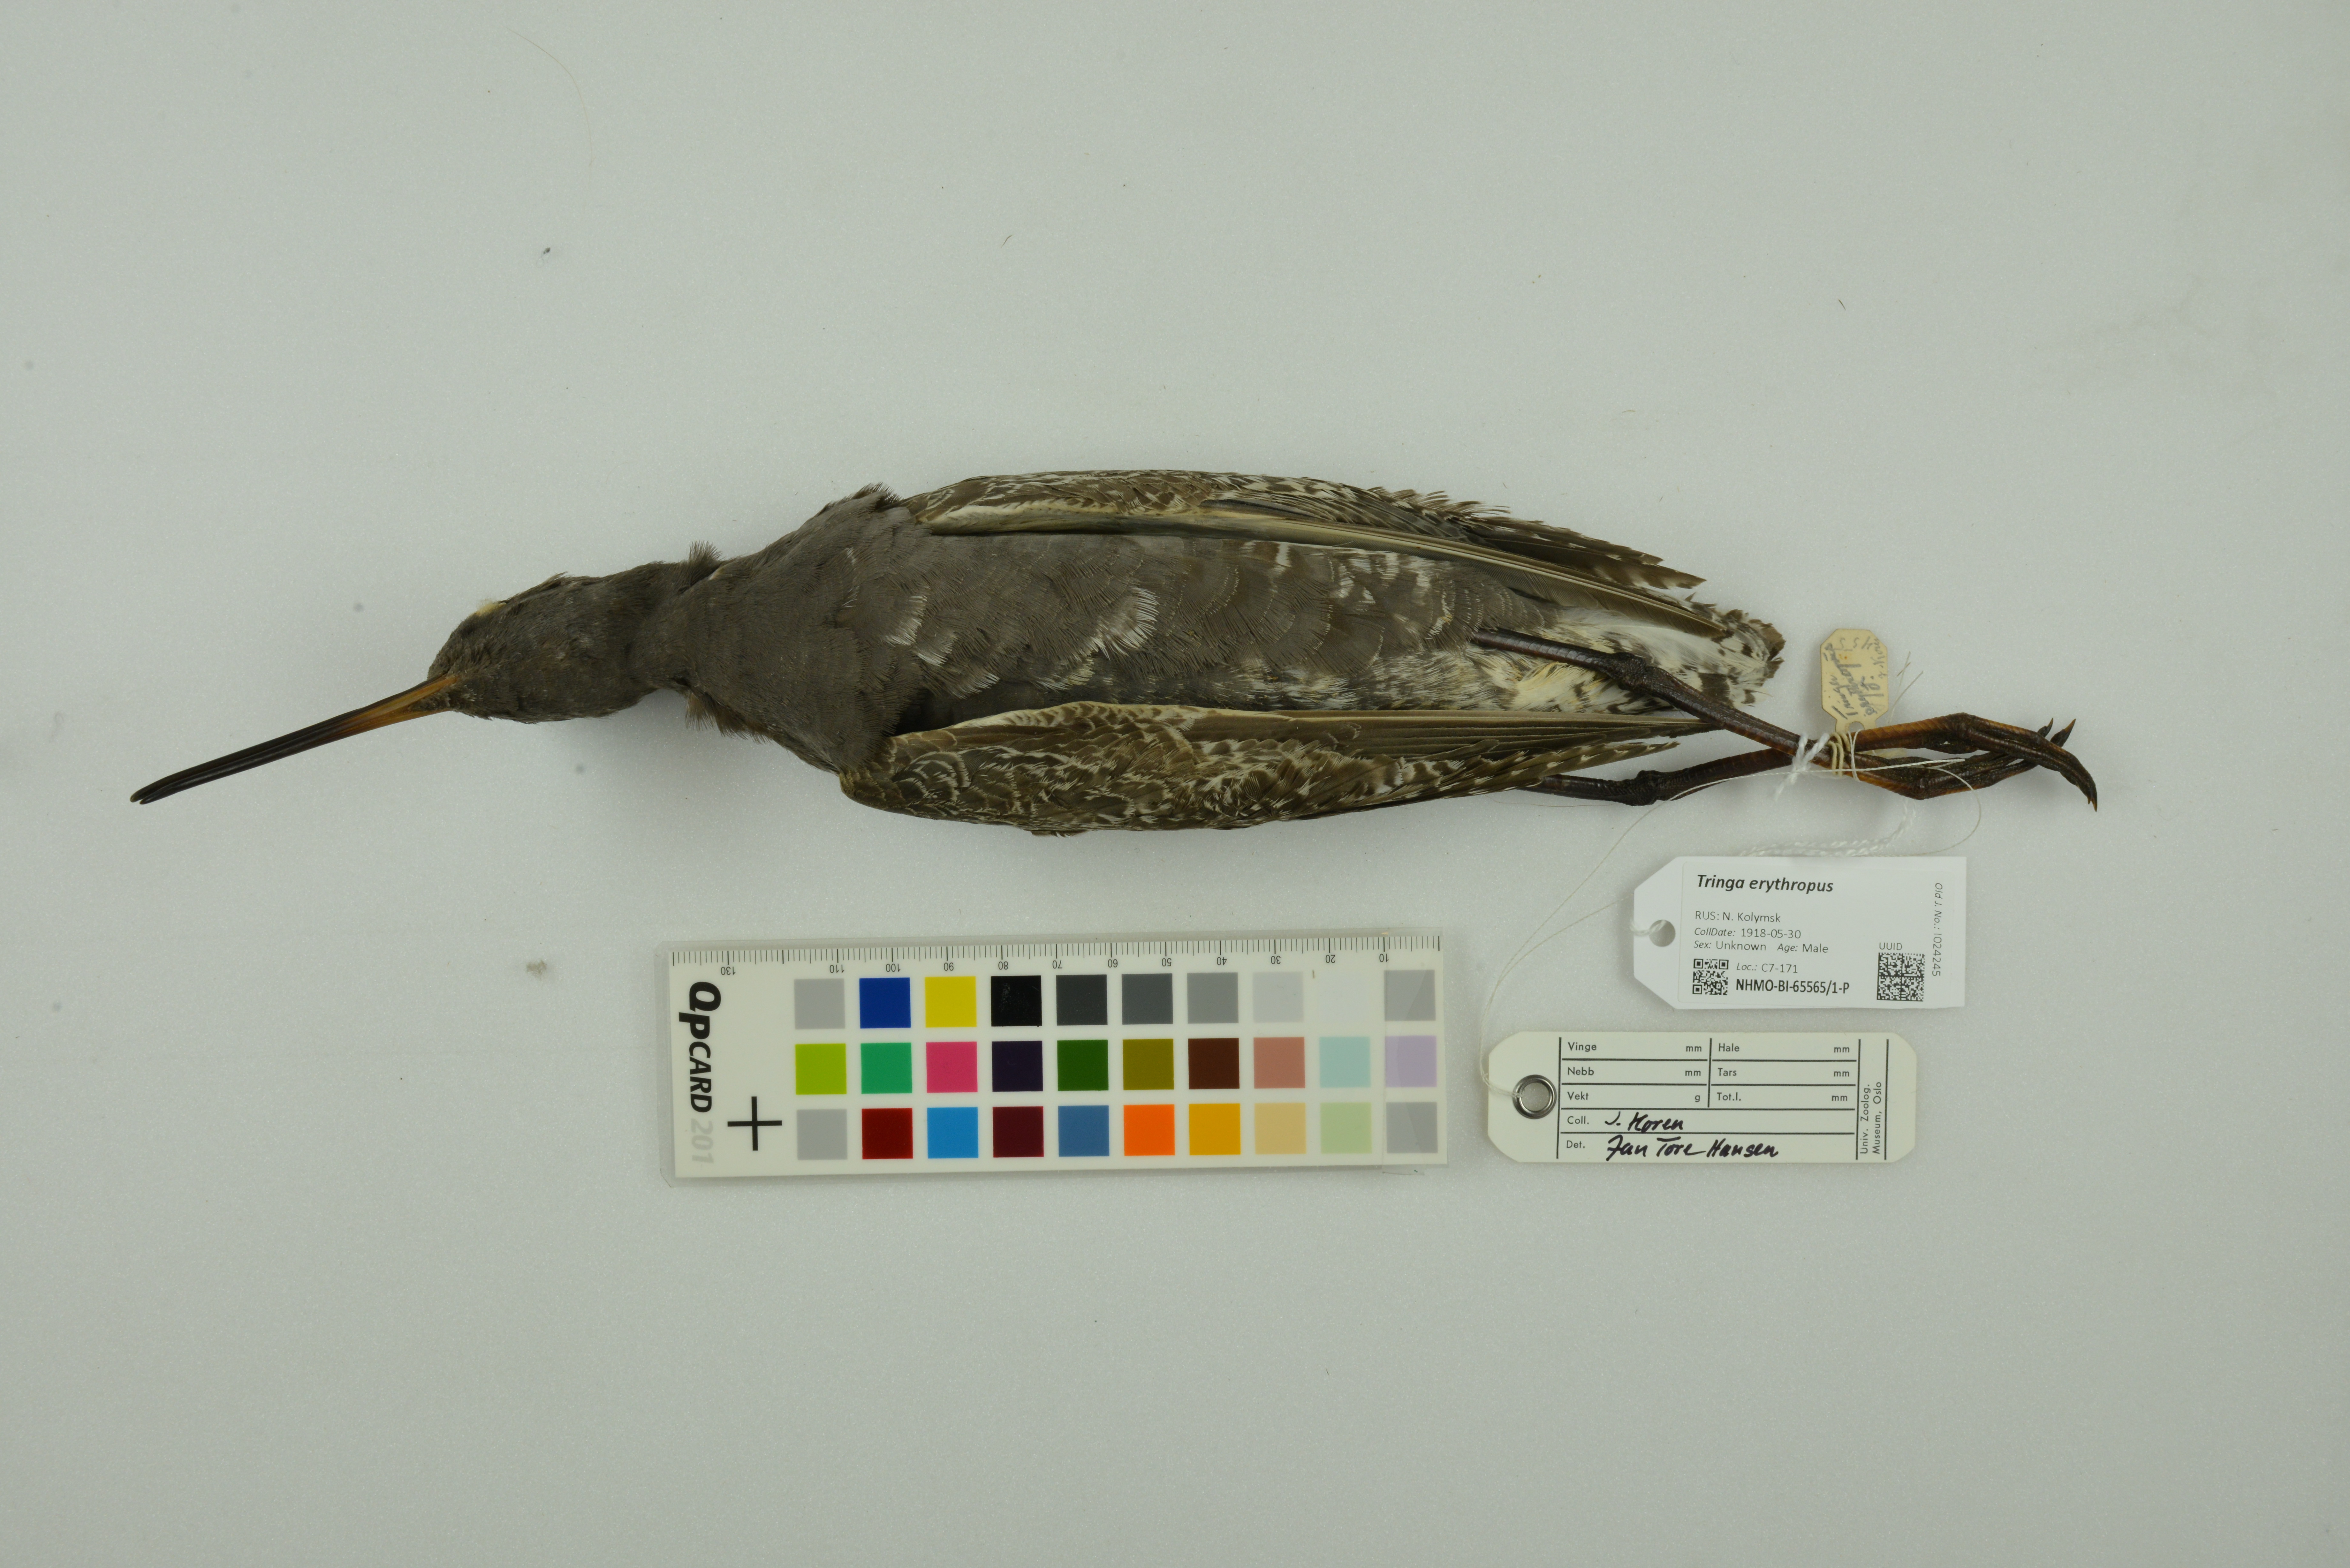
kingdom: Animalia
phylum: Chordata
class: Aves
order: Charadriiformes
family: Scolopacidae
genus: Tringa
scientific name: Tringa erythropus
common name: Spotted redshank
